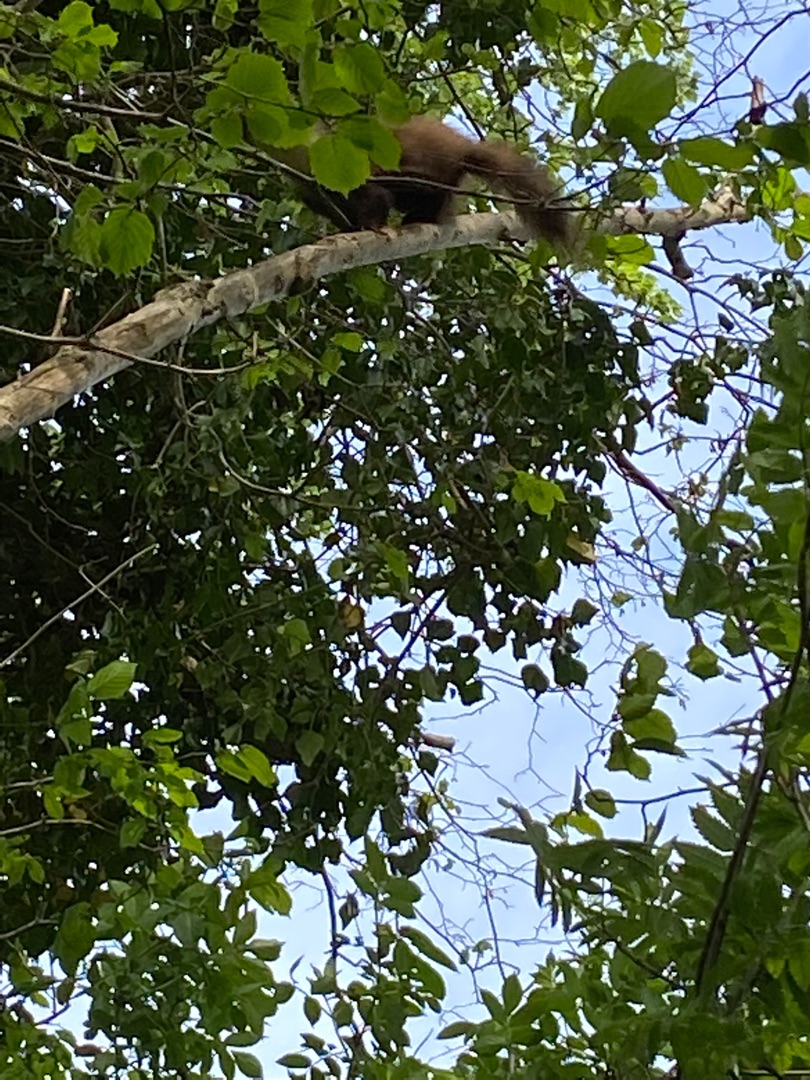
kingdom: Animalia
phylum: Chordata
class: Mammalia
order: Carnivora
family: Mustelidae
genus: Martes
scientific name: Martes martes
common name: Skovmår
